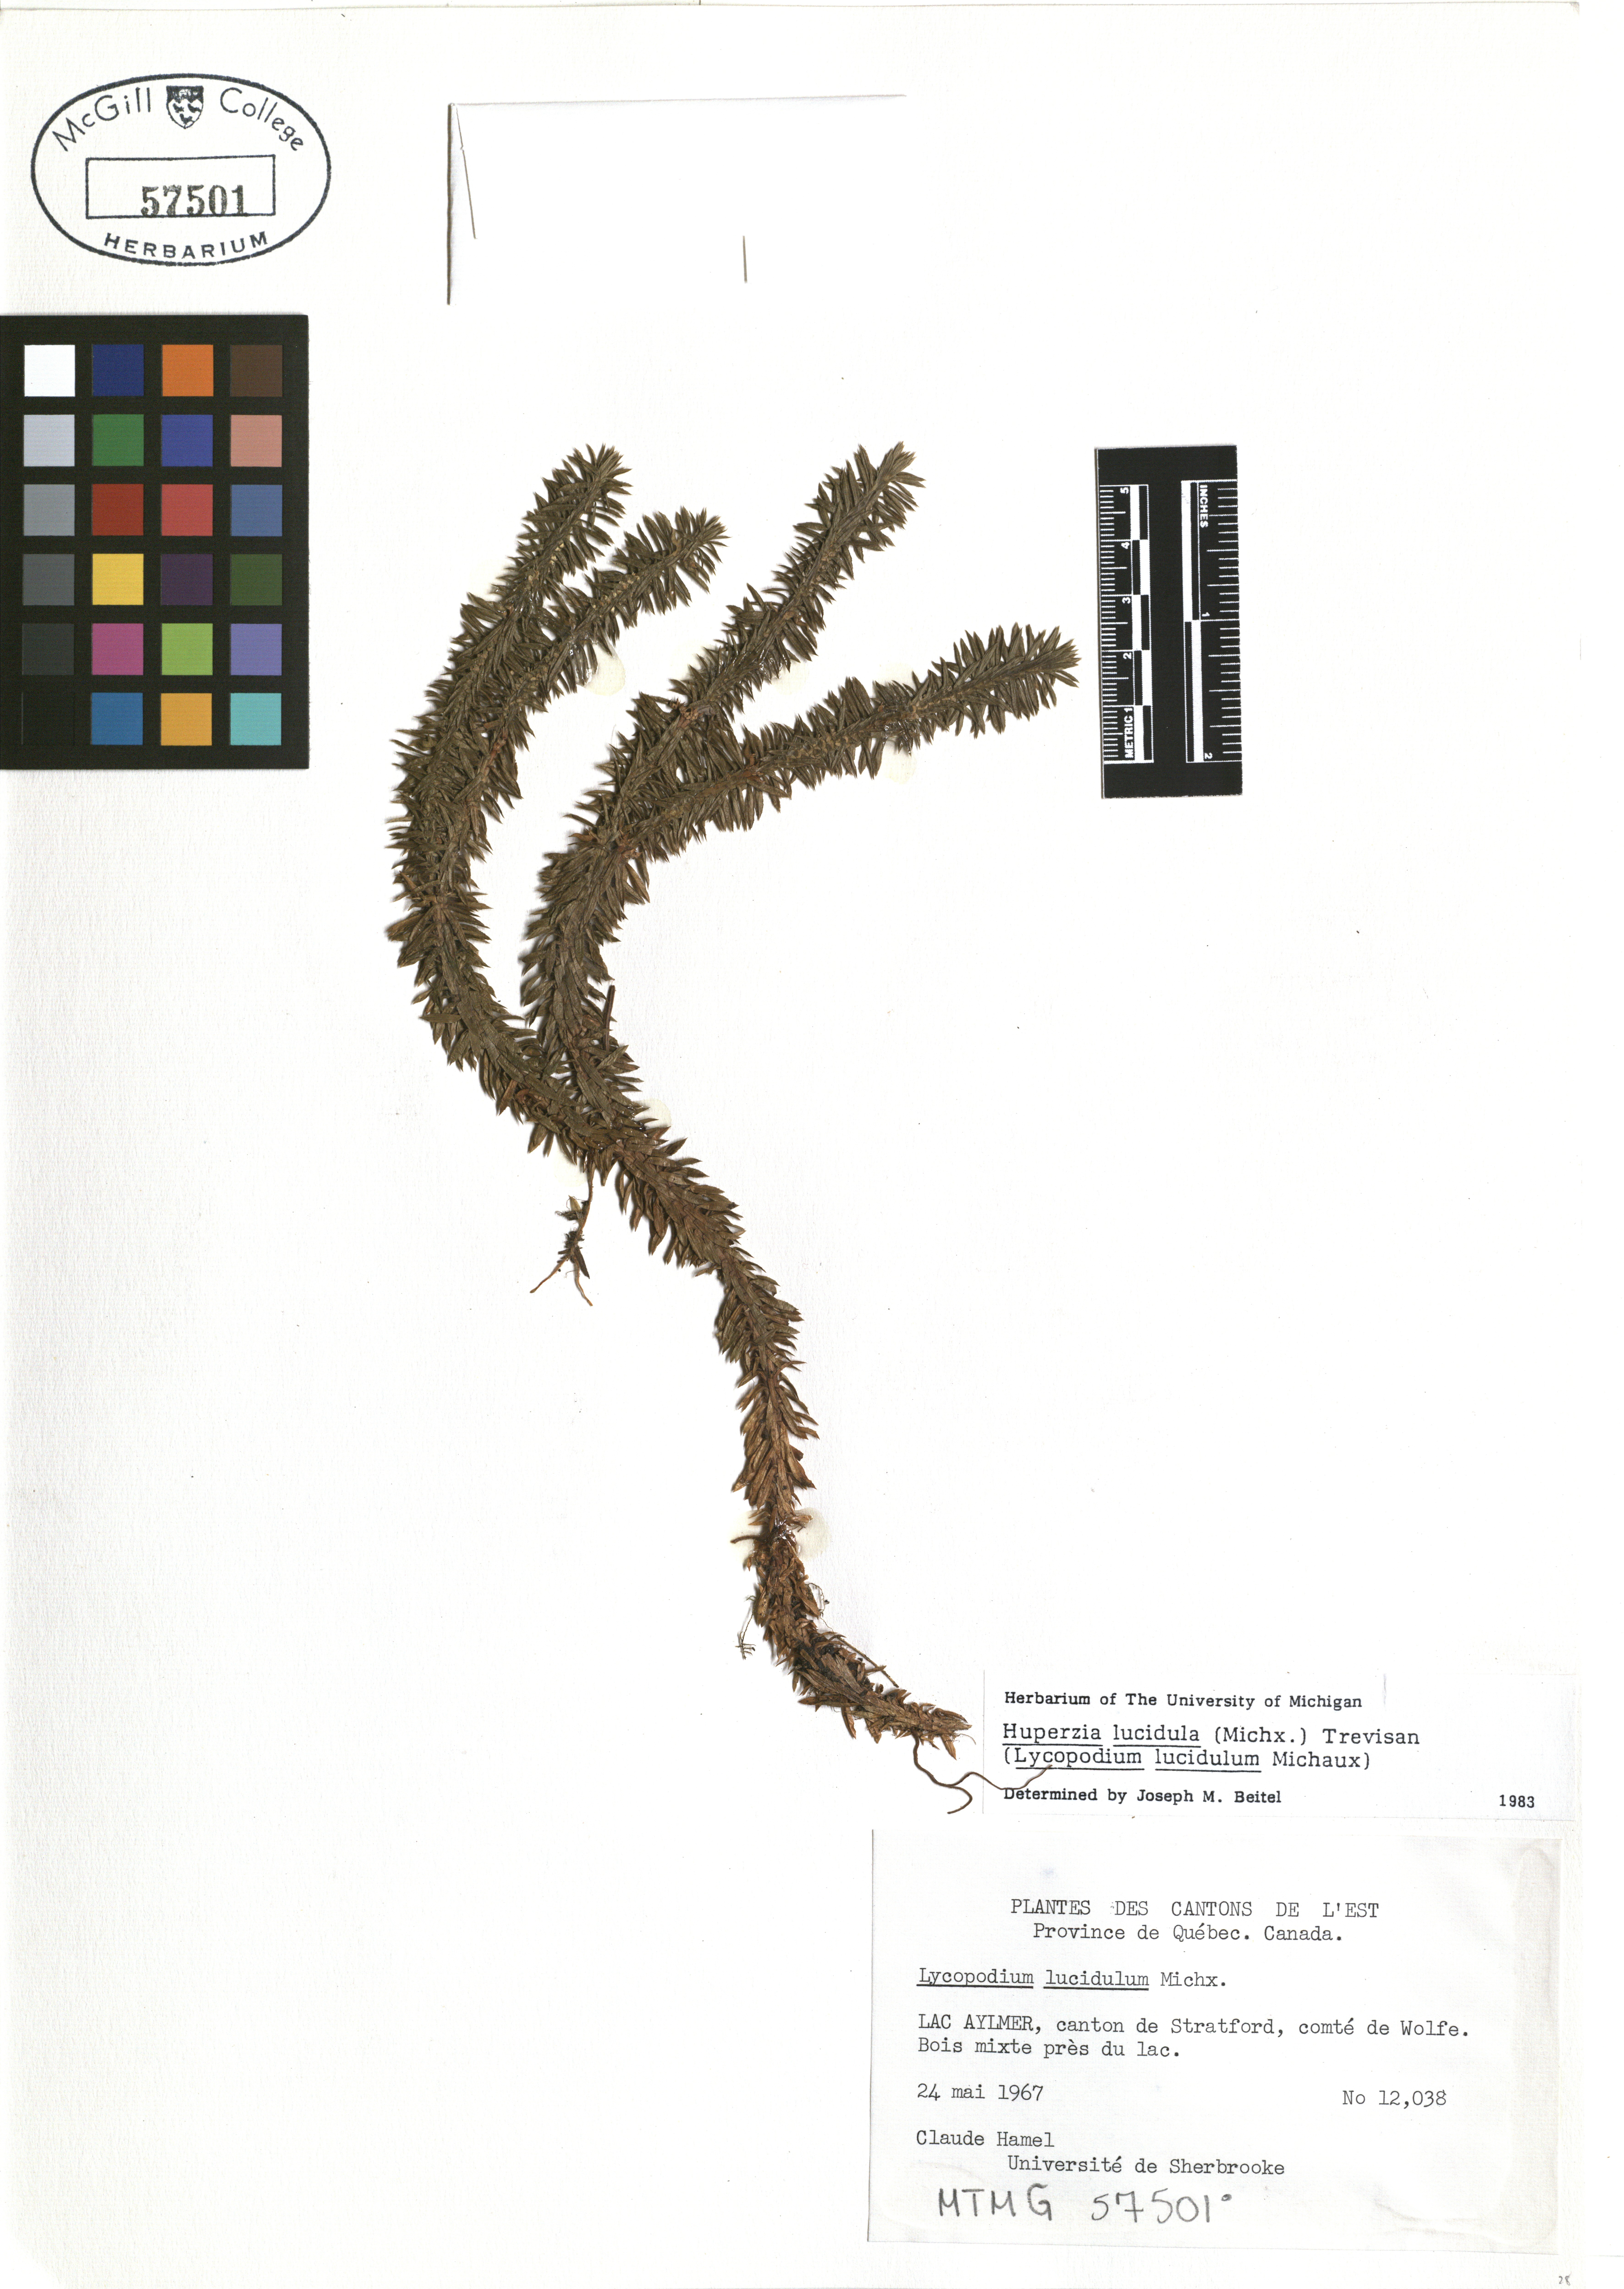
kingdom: Plantae
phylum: Tracheophyta
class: Lycopodiopsida
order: Lycopodiales
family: Lycopodiaceae
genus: Huperzia
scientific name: Huperzia lucidula
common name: Shining clubmoss
